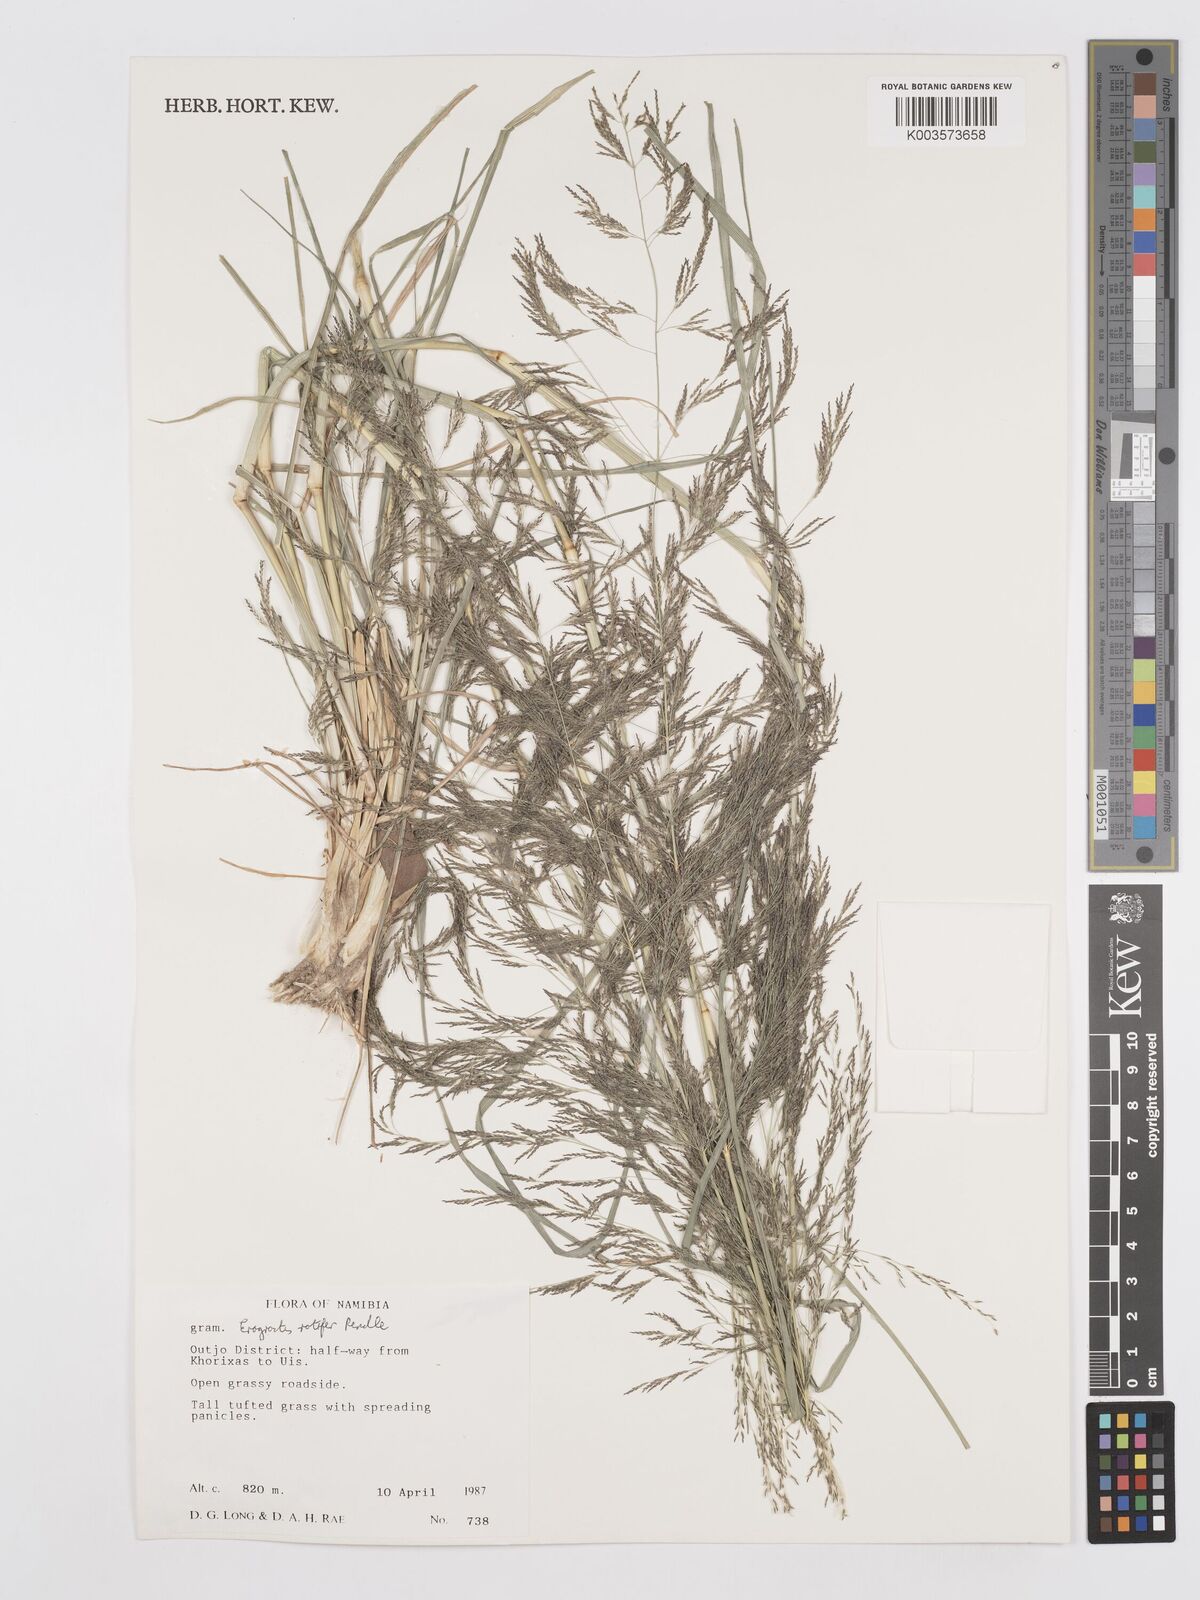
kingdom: Plantae
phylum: Tracheophyta
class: Liliopsida
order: Poales
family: Poaceae
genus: Eragrostis
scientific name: Eragrostis rotifer
